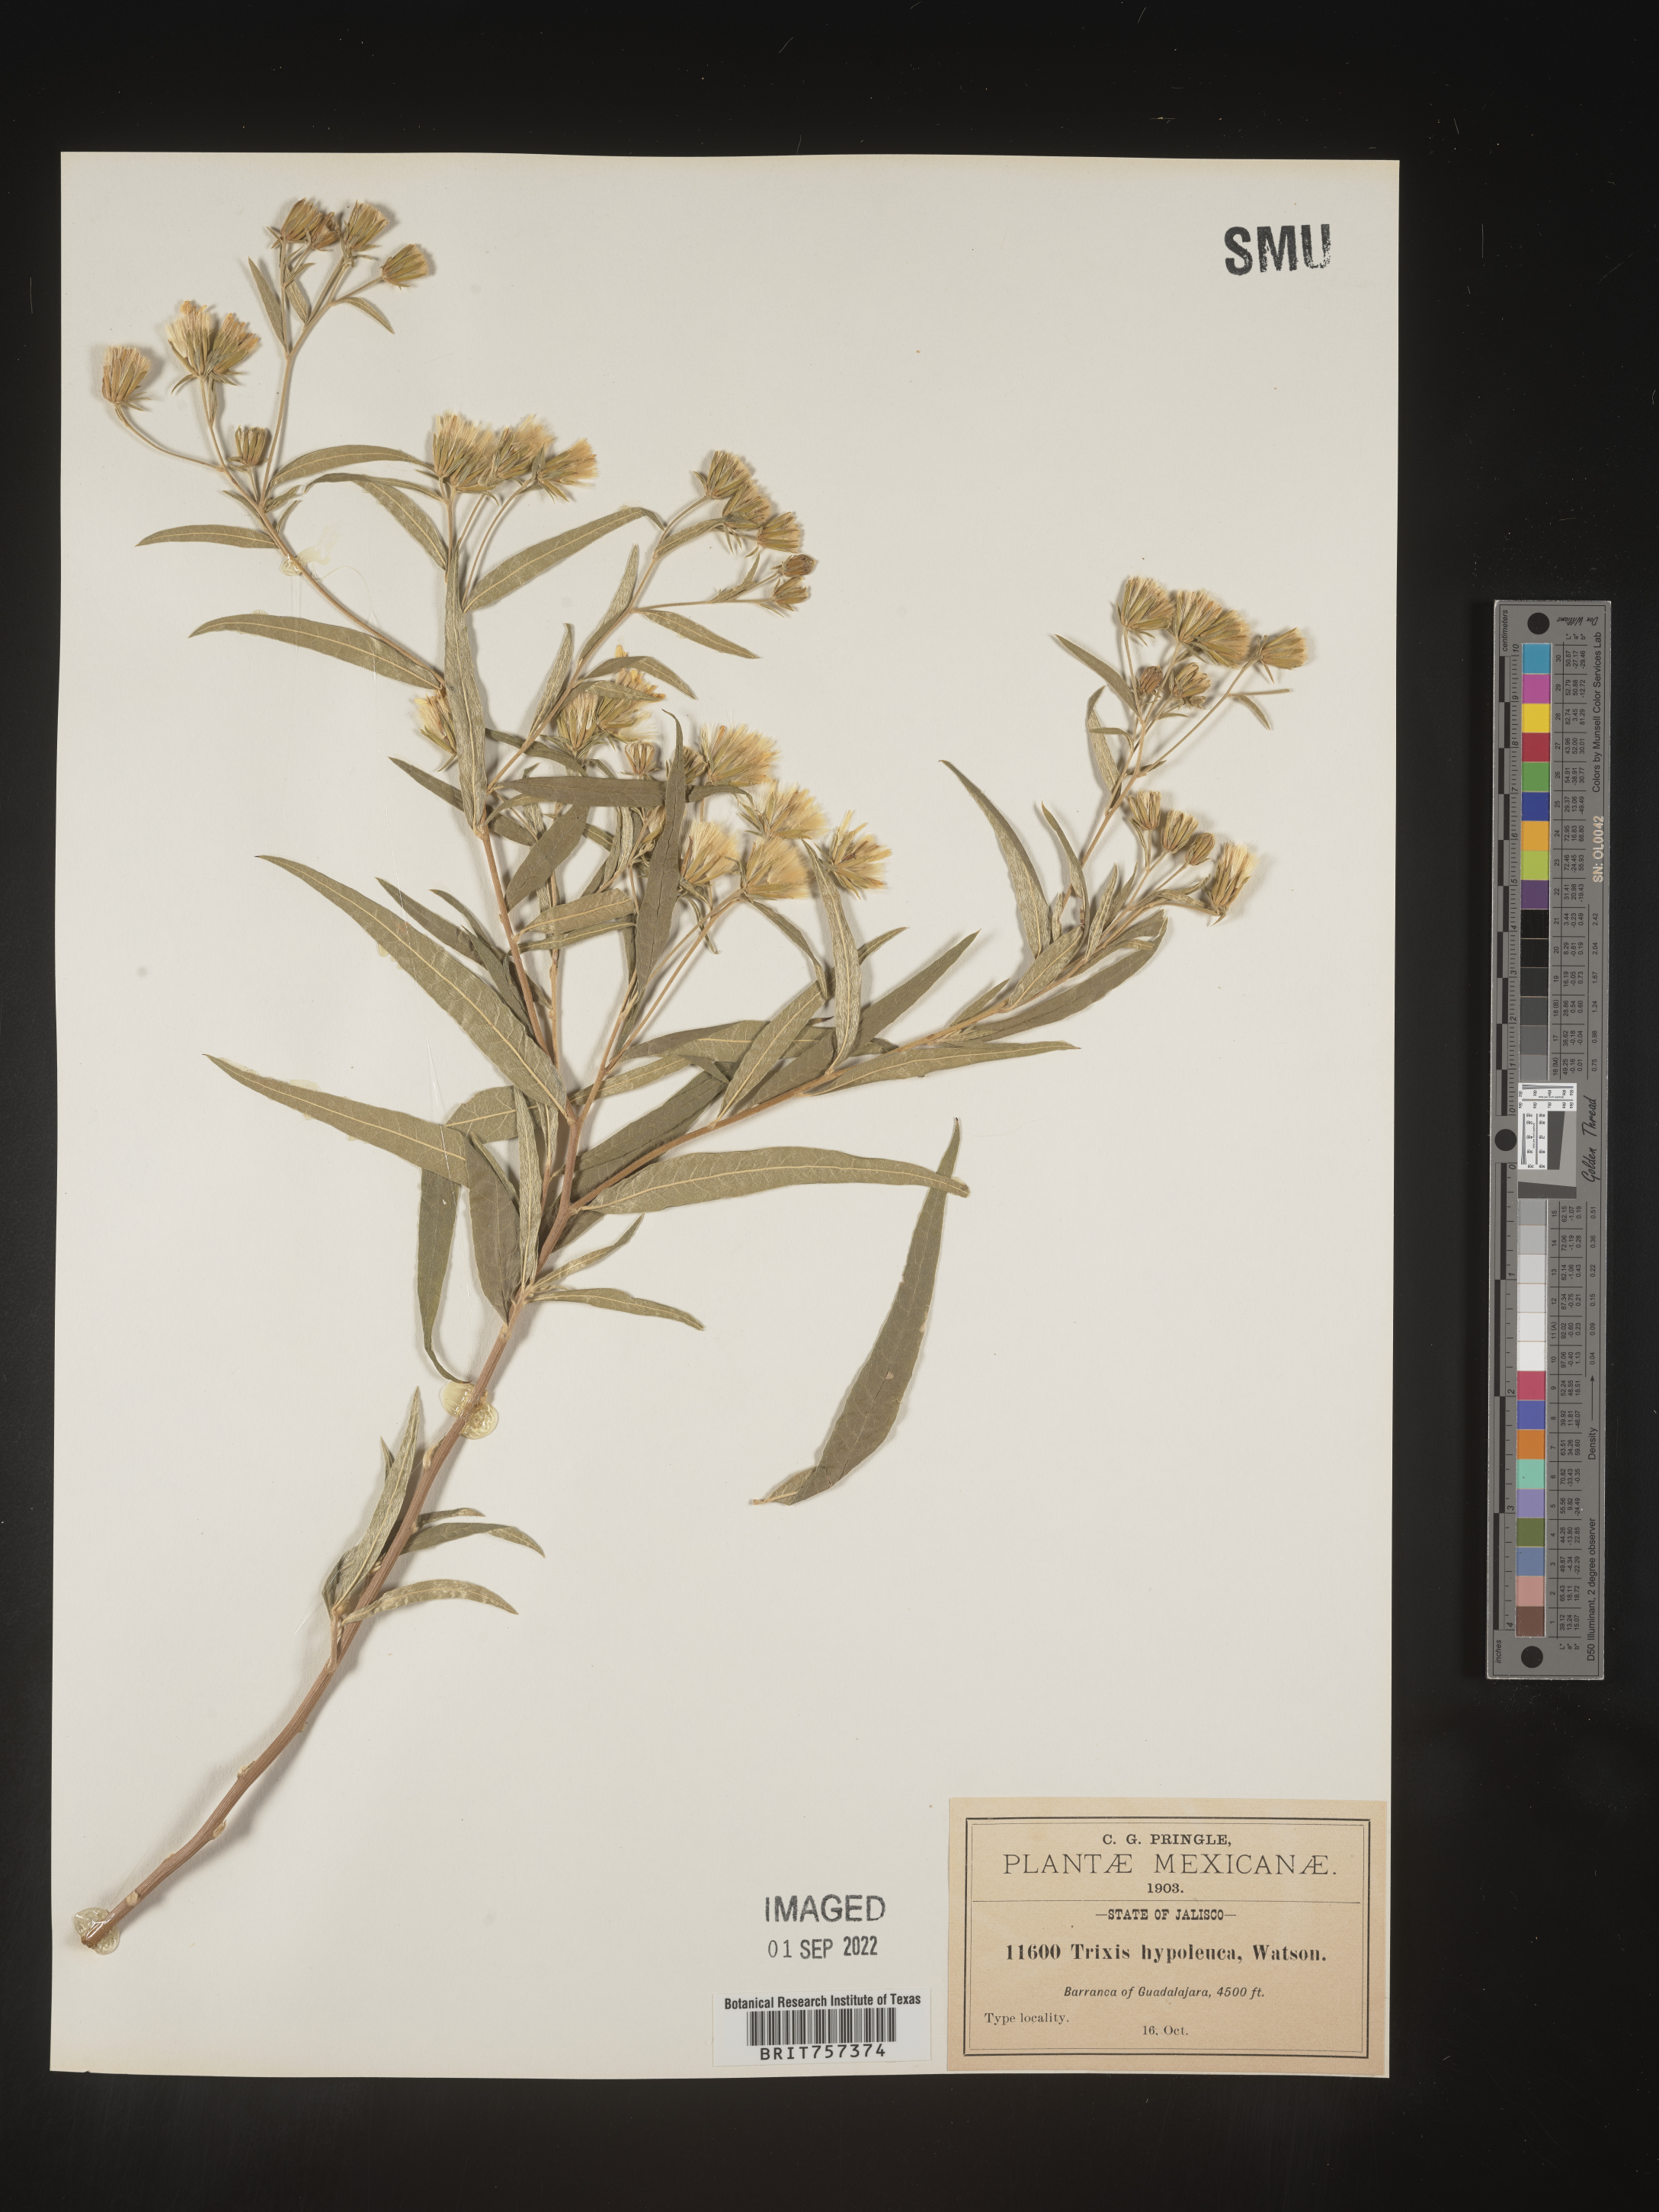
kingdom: Plantae
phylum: Tracheophyta
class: Magnoliopsida
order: Asterales
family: Asteraceae
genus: Trixis
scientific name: Trixis
